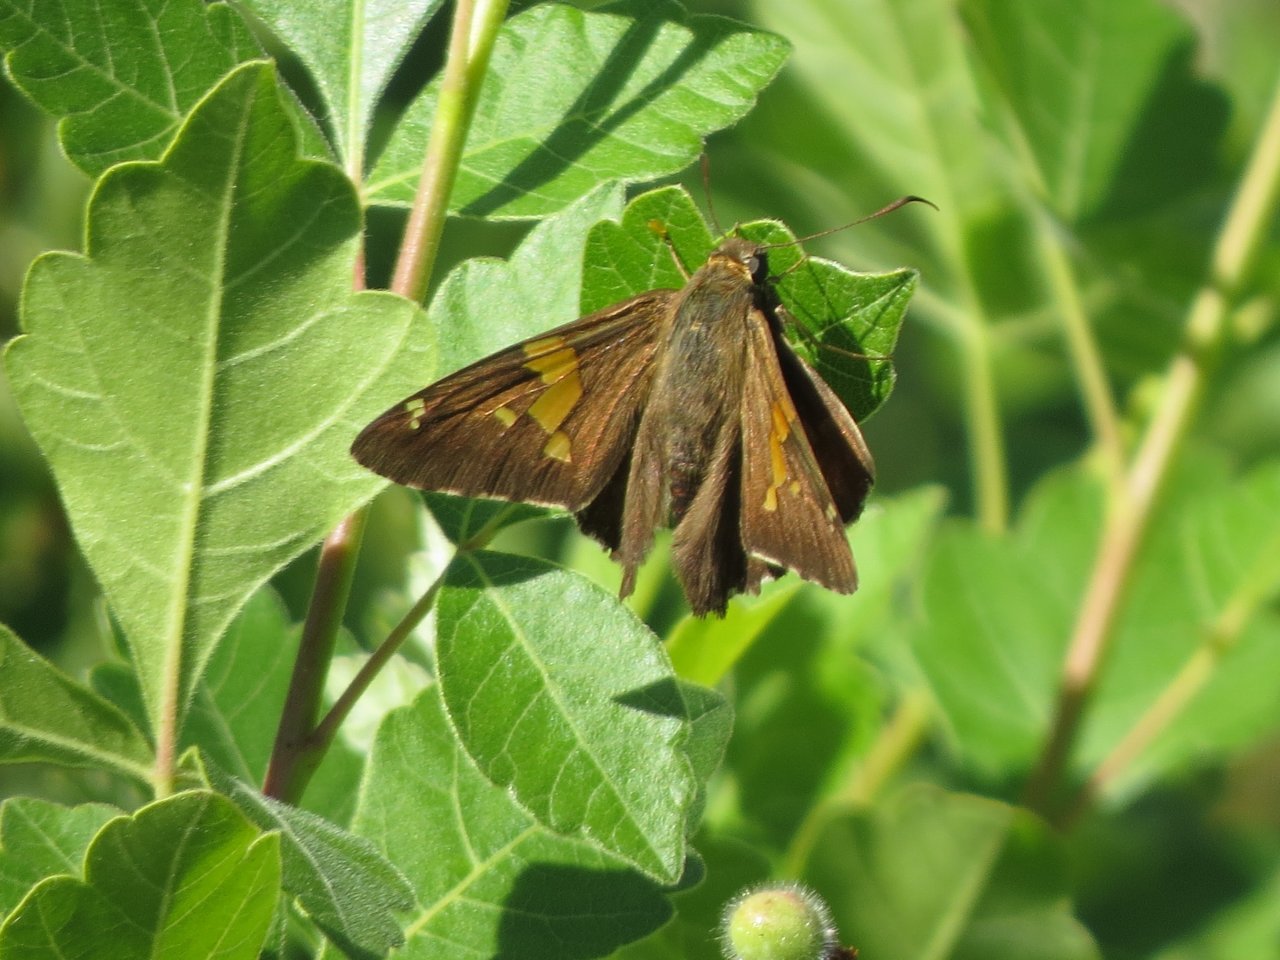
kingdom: Animalia
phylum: Arthropoda
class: Insecta
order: Lepidoptera
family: Hesperiidae
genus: Epargyreus
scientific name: Epargyreus clarus
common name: Silver-spotted Skipper
